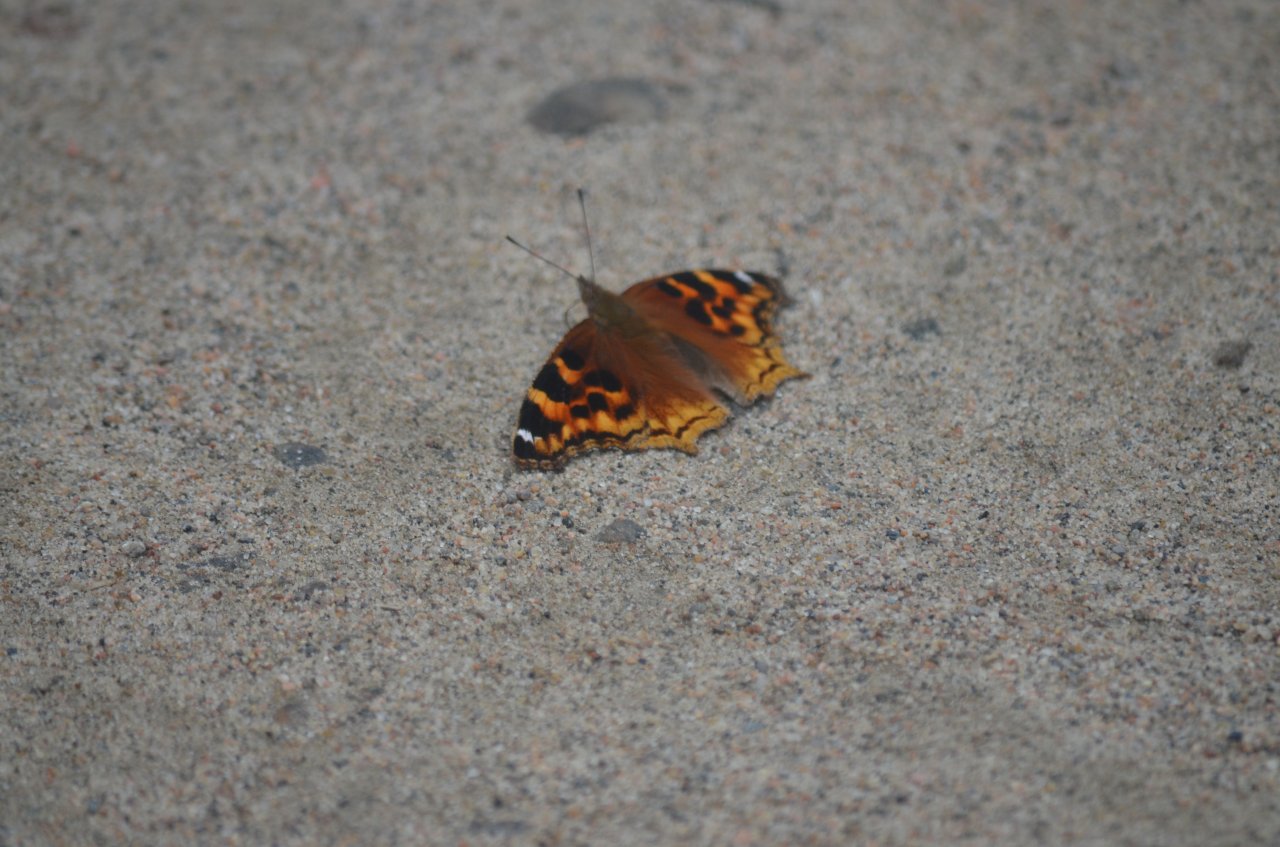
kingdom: Animalia
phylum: Arthropoda
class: Insecta
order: Lepidoptera
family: Nymphalidae
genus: Polygonia
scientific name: Polygonia vaualbum
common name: Compton Tortoiseshell
